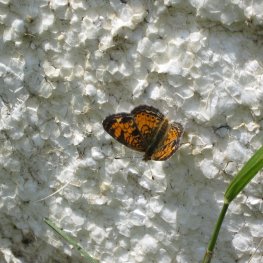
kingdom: Animalia
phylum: Arthropoda
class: Insecta
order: Lepidoptera
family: Nymphalidae
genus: Phyciodes
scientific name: Phyciodes tharos
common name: Pearl Crescent
